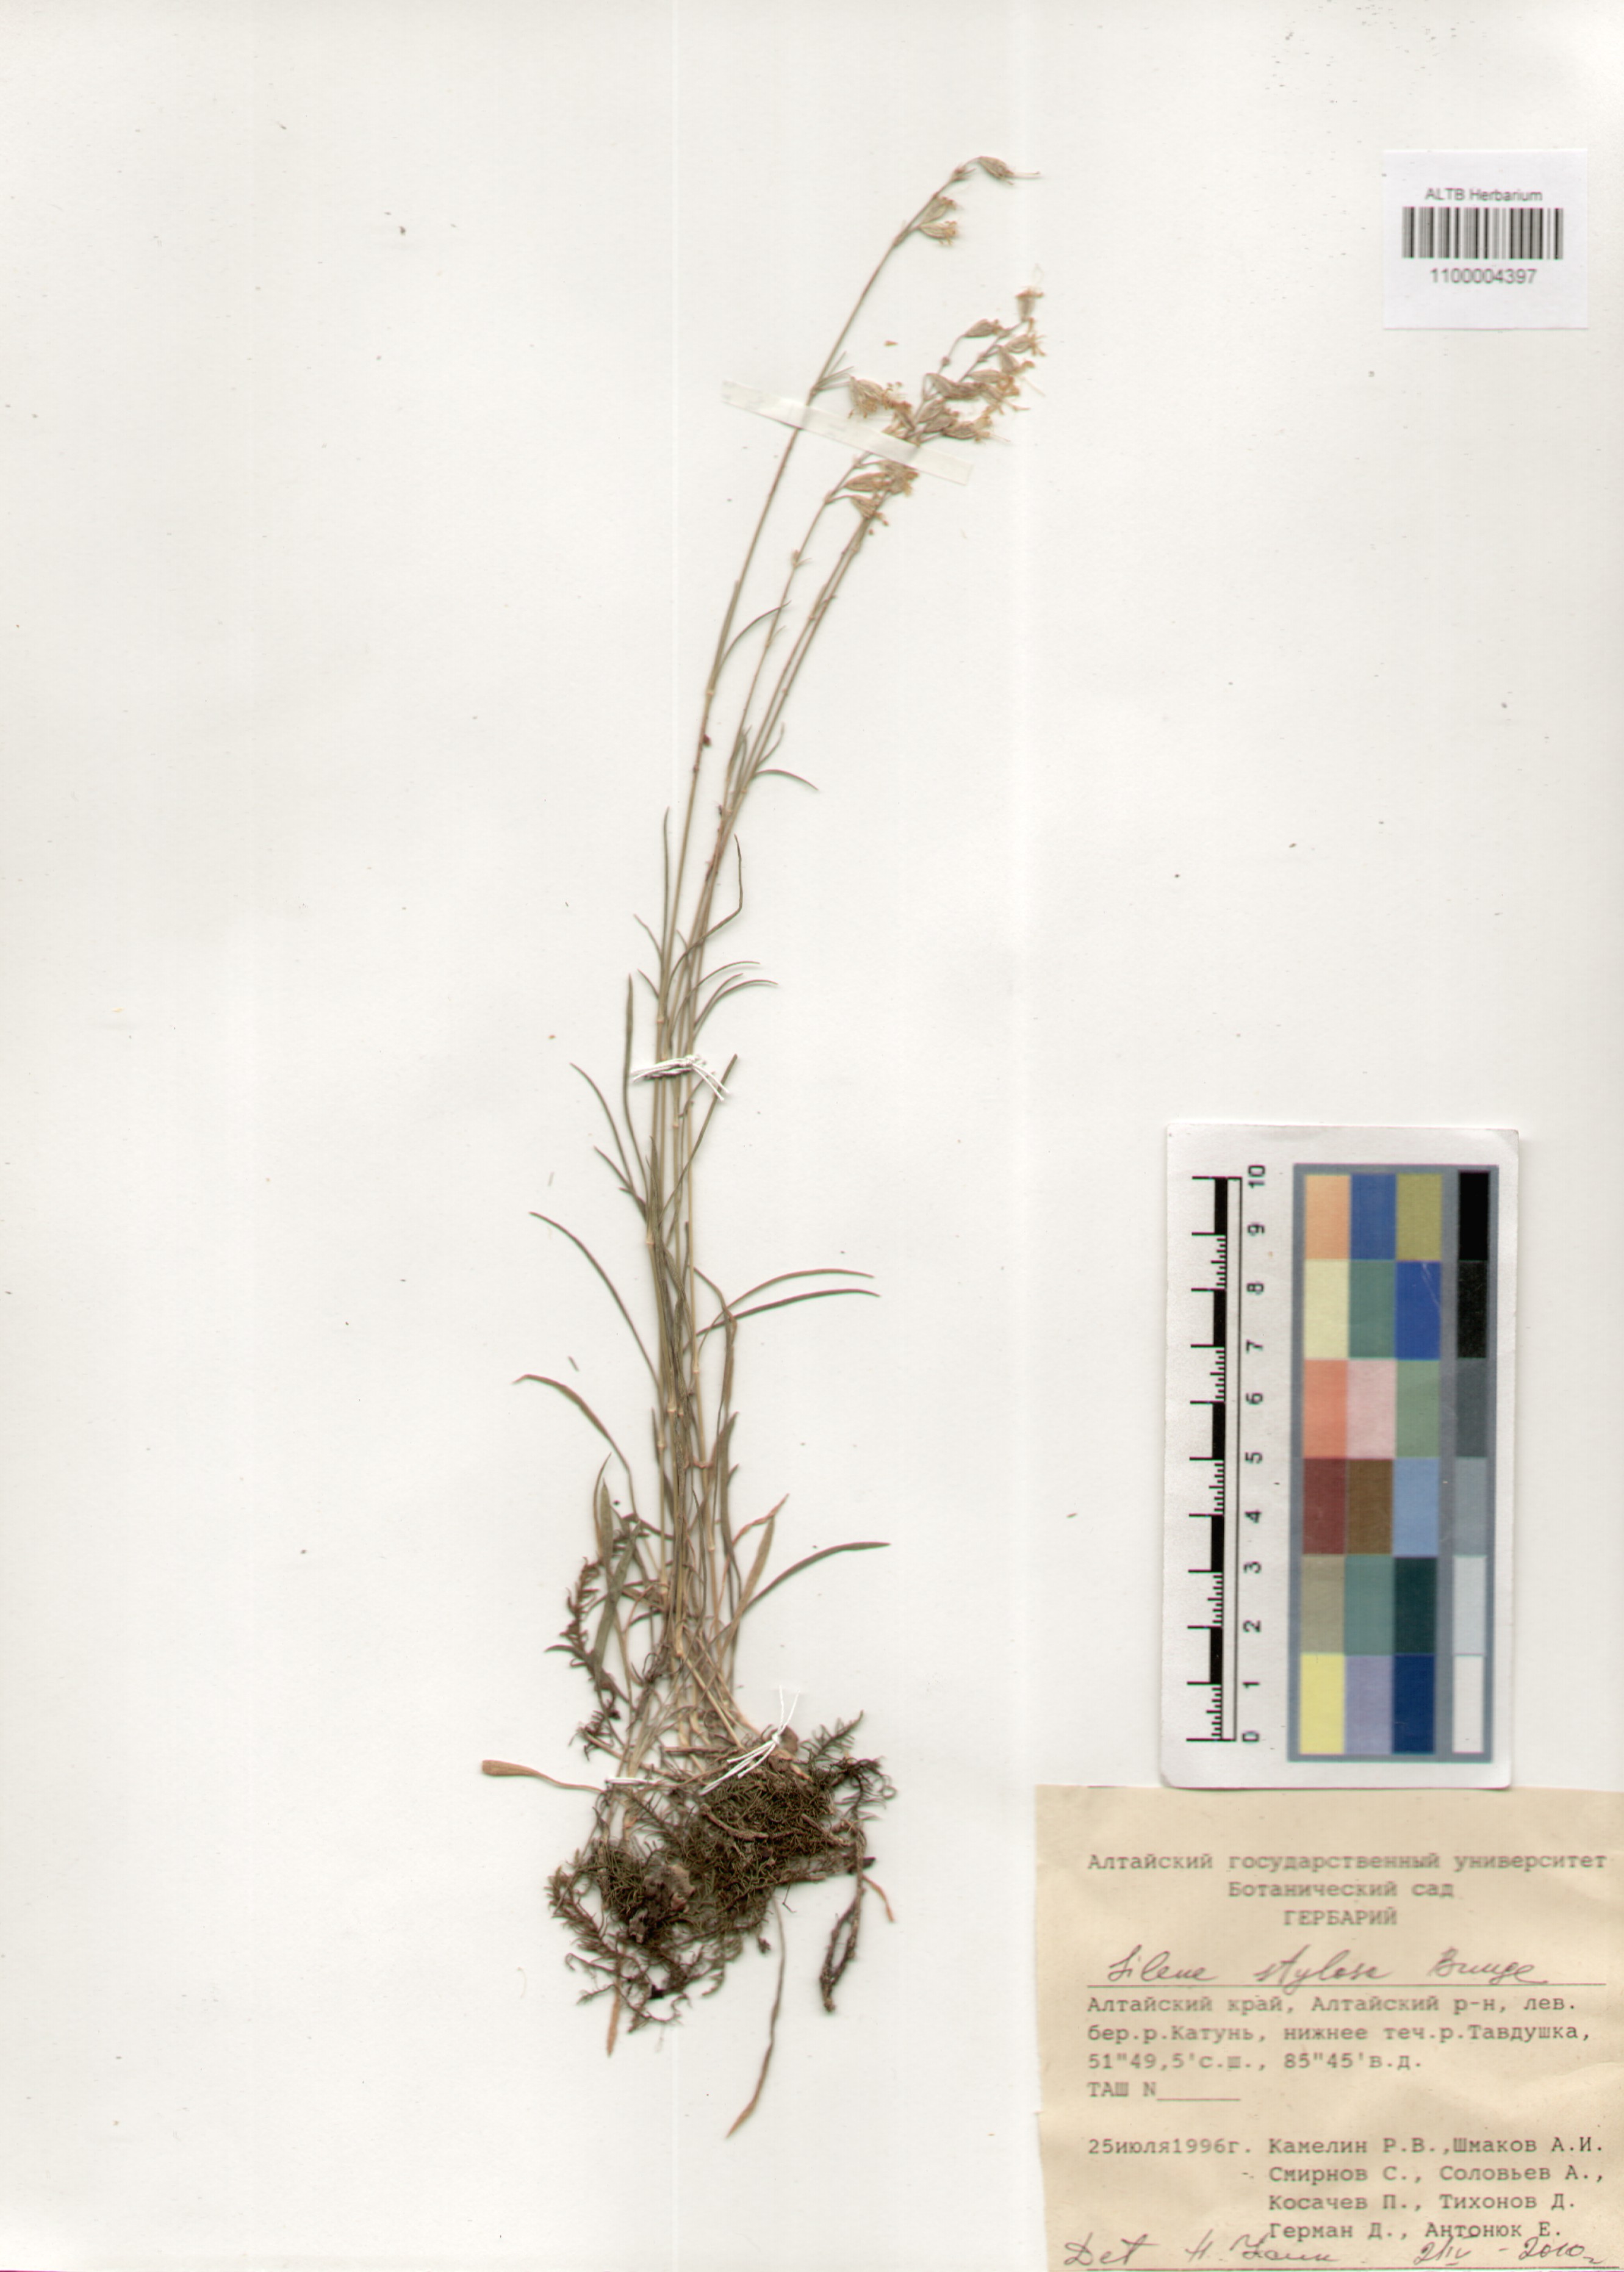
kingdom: Plantae
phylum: Tracheophyta
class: Magnoliopsida
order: Caryophyllales
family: Caryophyllaceae
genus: Silene
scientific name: Silene graminifolia
